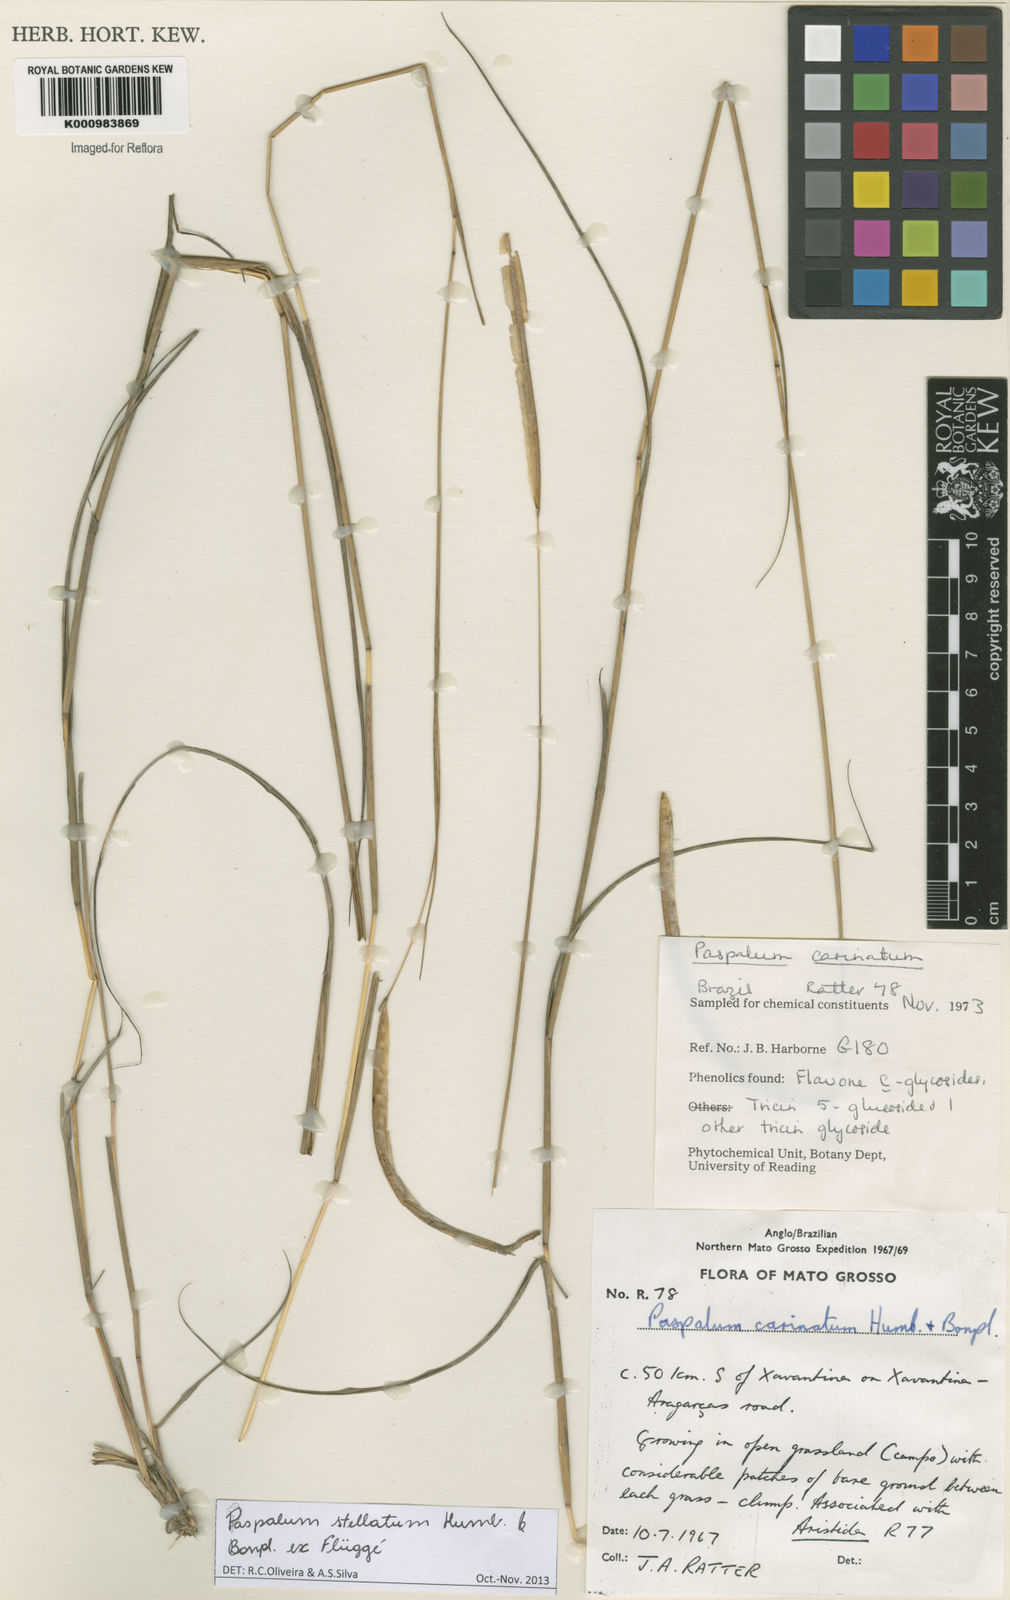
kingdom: Plantae
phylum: Tracheophyta
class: Liliopsida
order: Poales
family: Poaceae
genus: Paspalum
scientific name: Paspalum
